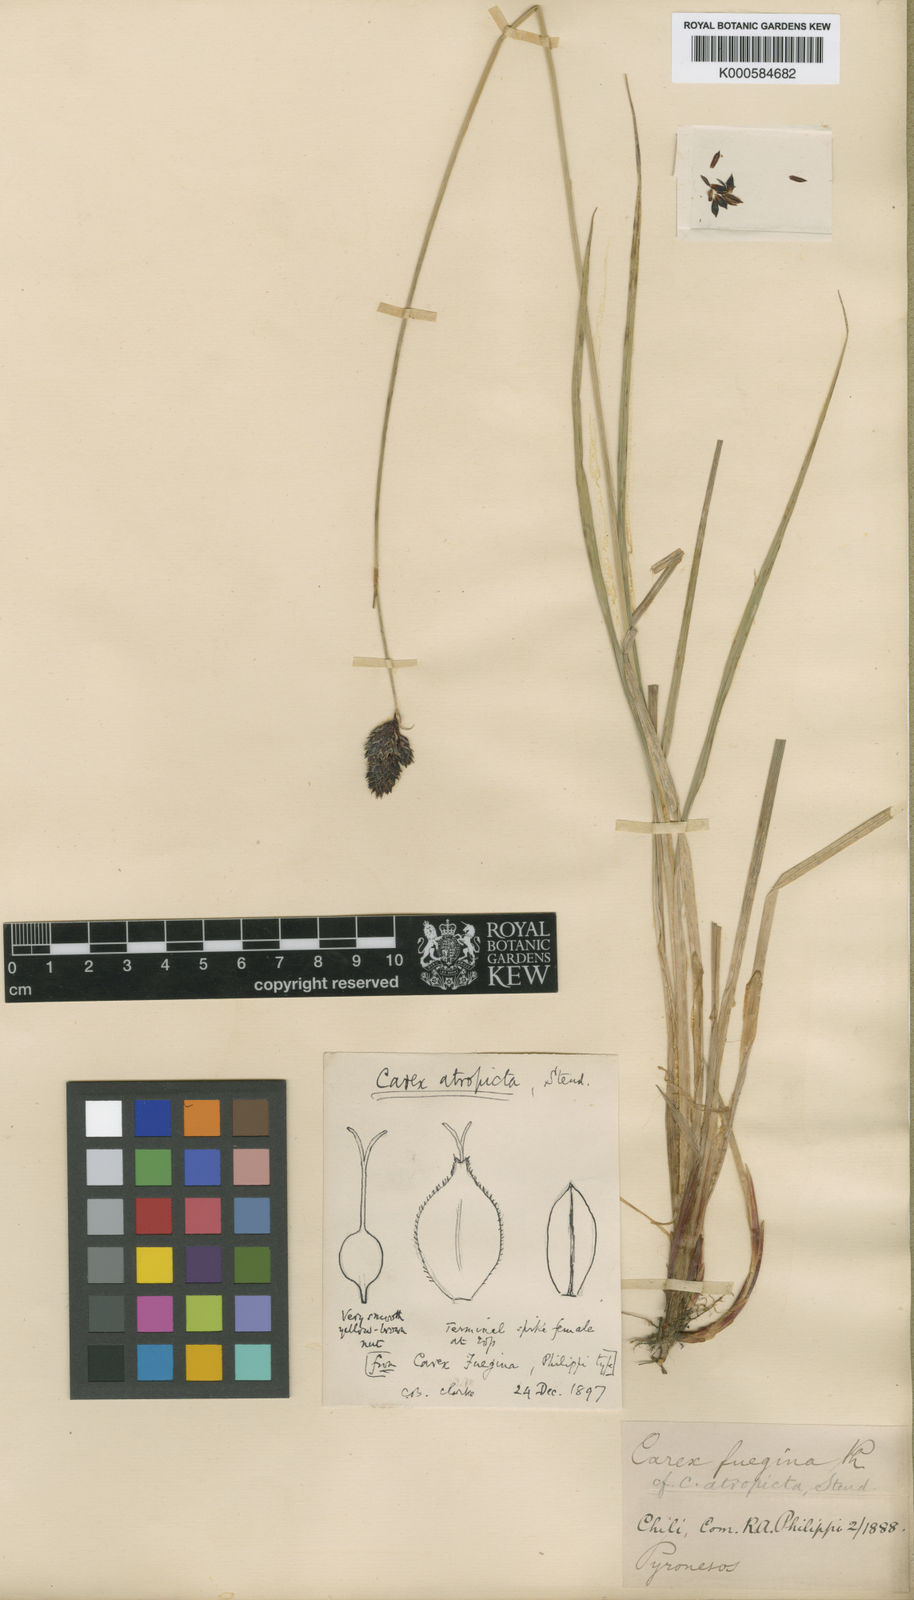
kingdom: Plantae
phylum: Tracheophyta
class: Liliopsida
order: Poales
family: Cyperaceae
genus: Carex
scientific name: Carex atropicta
